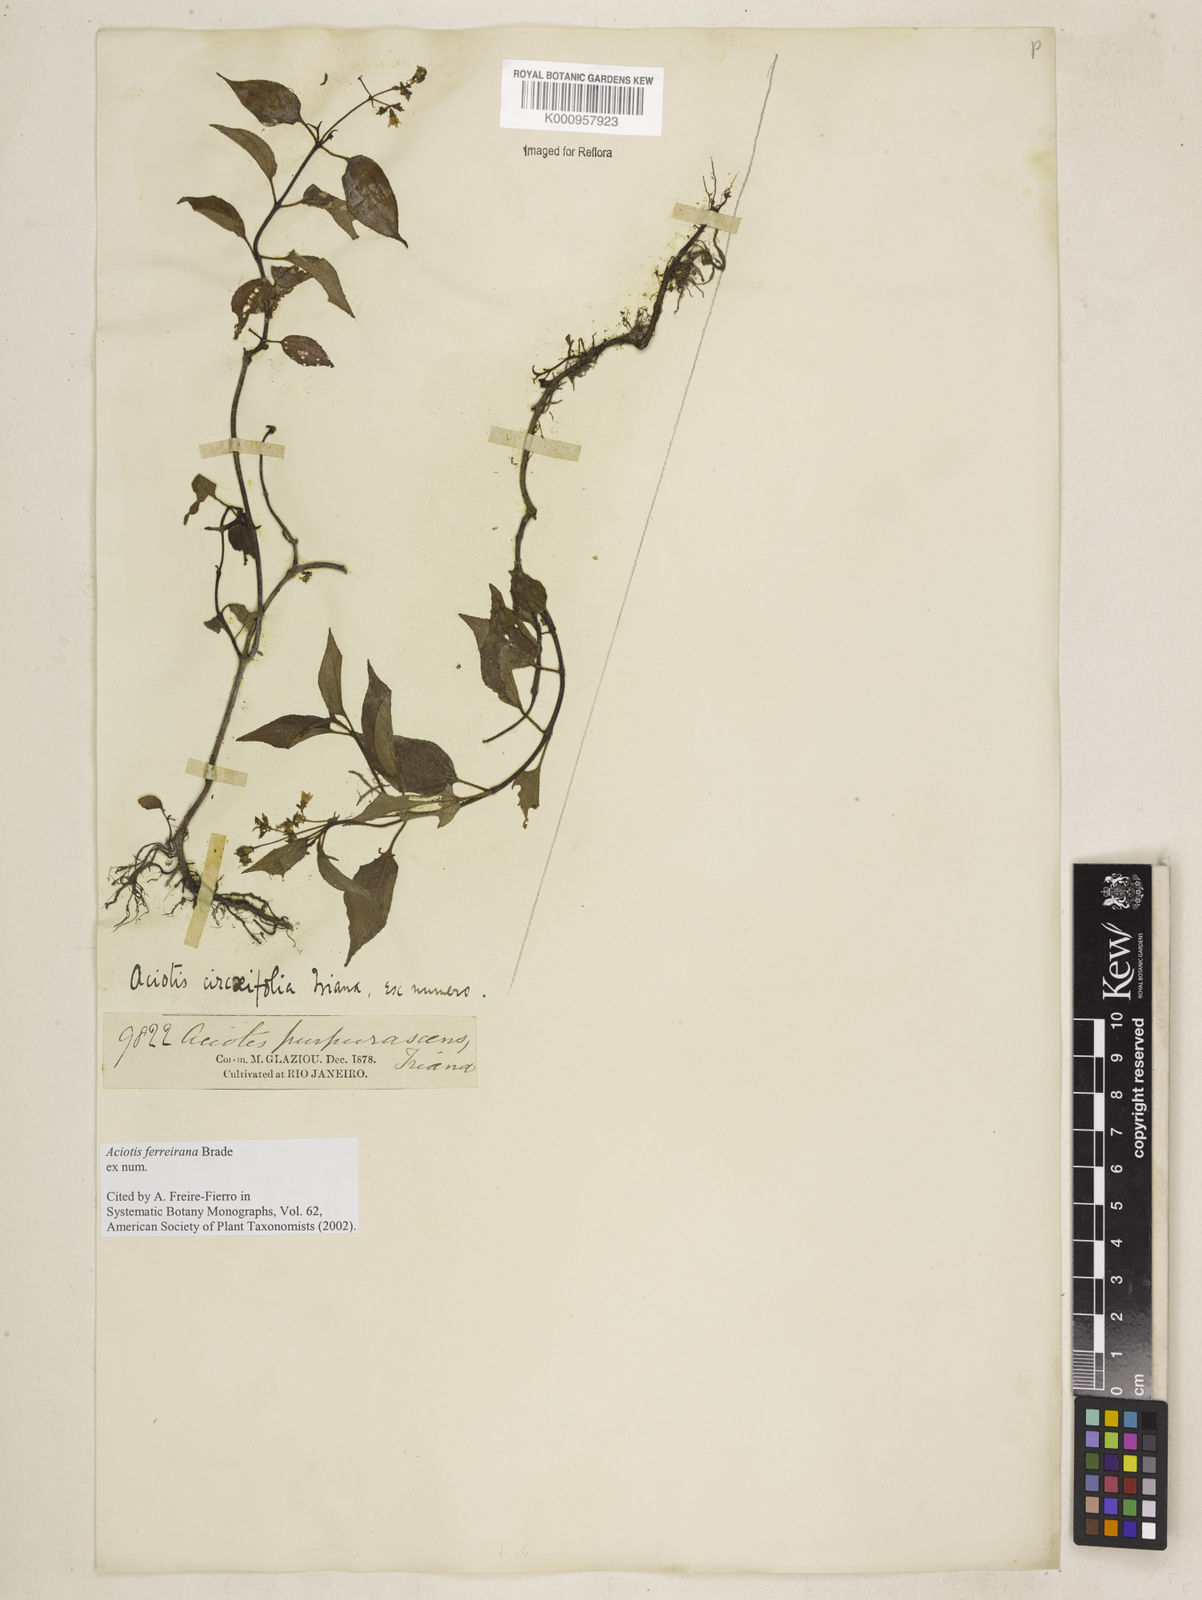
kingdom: Plantae
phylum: Tracheophyta
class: Magnoliopsida
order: Myrtales
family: Melastomataceae
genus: Aciotis
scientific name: Aciotis ferreirana
